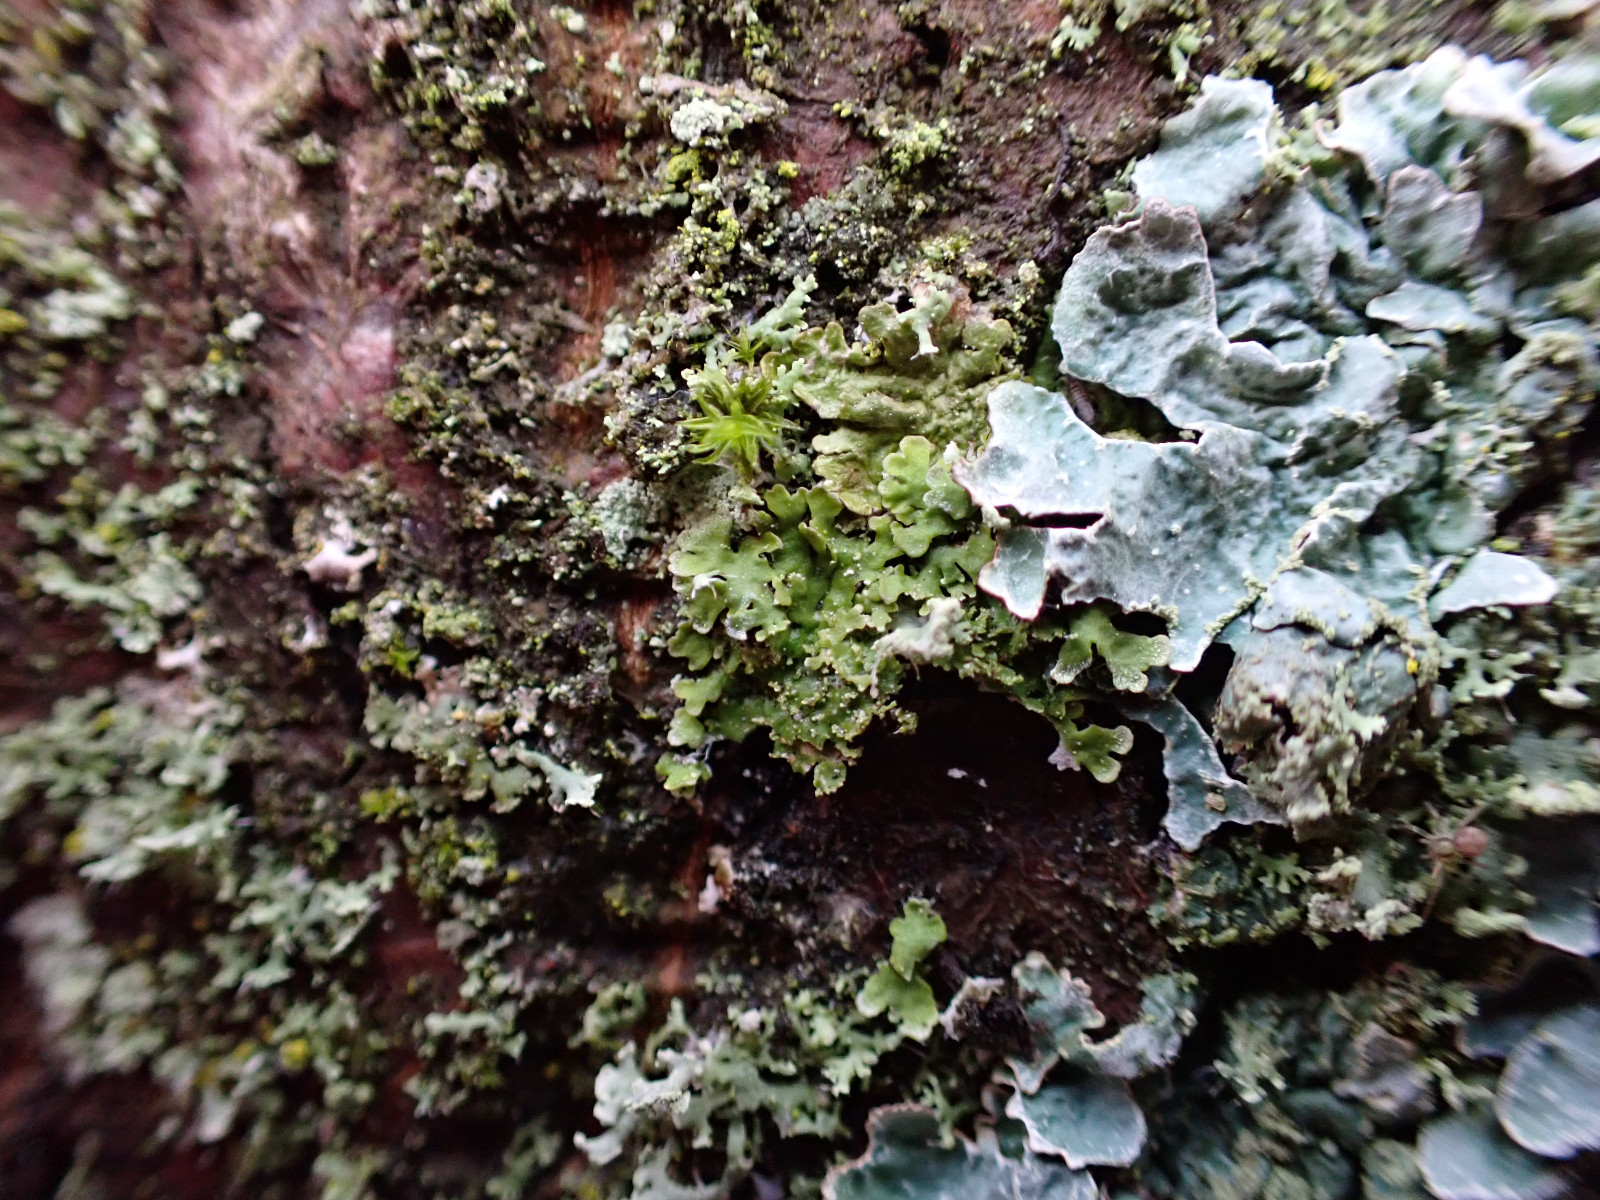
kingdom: Fungi
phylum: Ascomycota
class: Lecanoromycetes
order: Caliciales
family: Physciaceae
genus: Poeltonia
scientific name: Poeltonia grisea
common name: hvidgrå dugrosetlav
